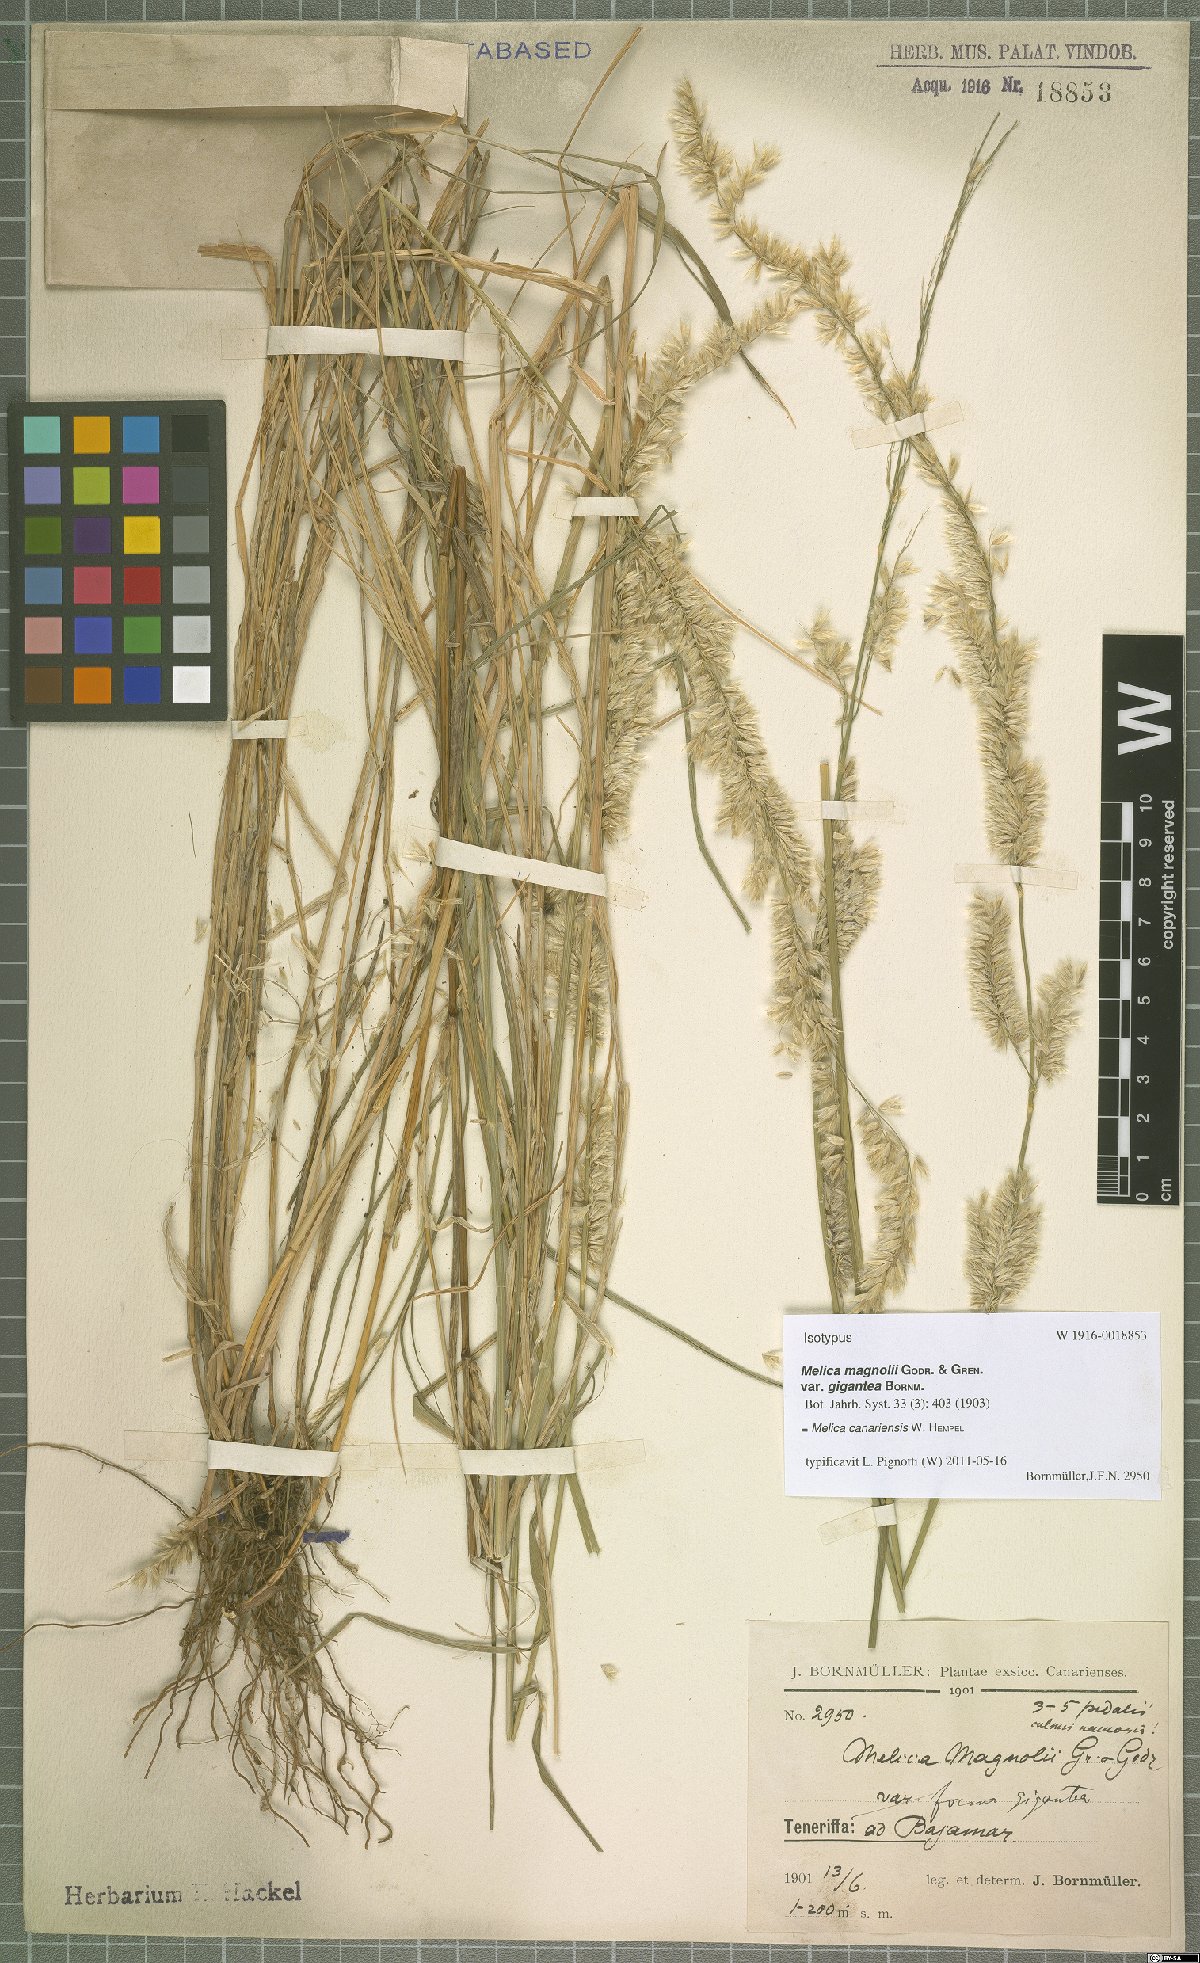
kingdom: Plantae
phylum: Tracheophyta
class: Liliopsida
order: Poales
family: Poaceae
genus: Melica
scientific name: Melica canariensis
